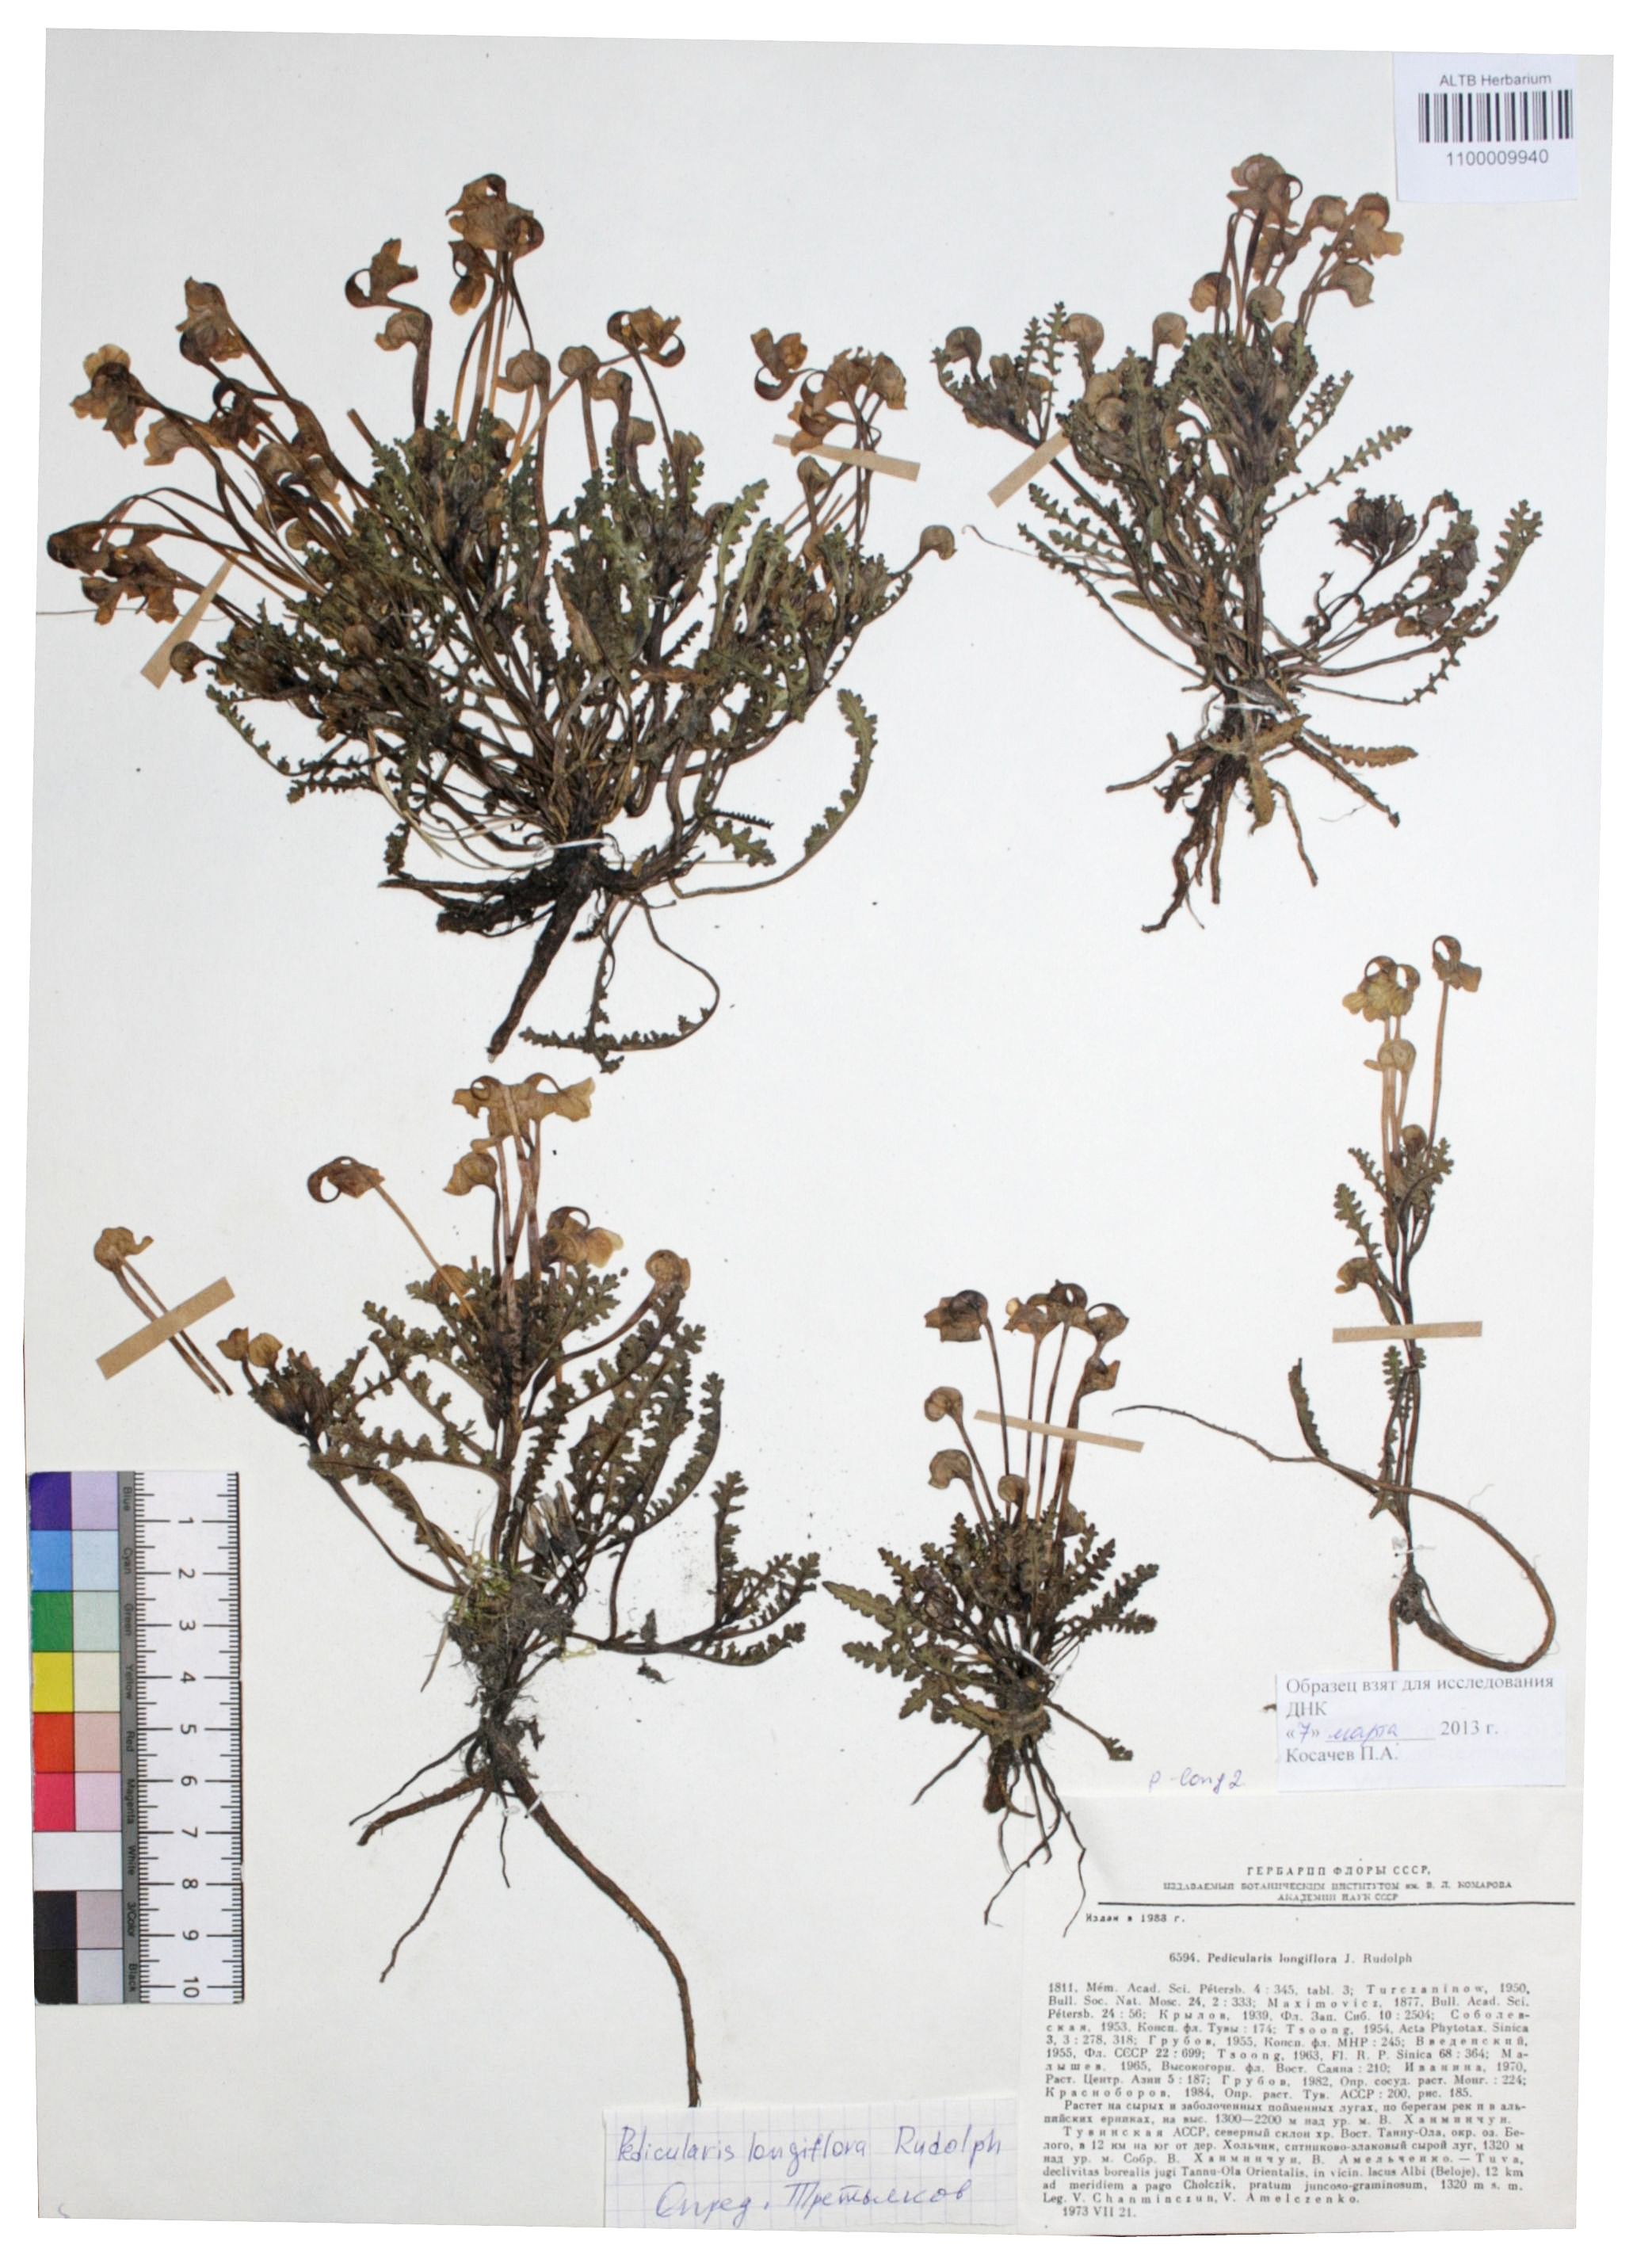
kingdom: Plantae
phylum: Tracheophyta
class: Magnoliopsida
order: Lamiales
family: Orobanchaceae
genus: Pedicularis
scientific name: Pedicularis longiflora
